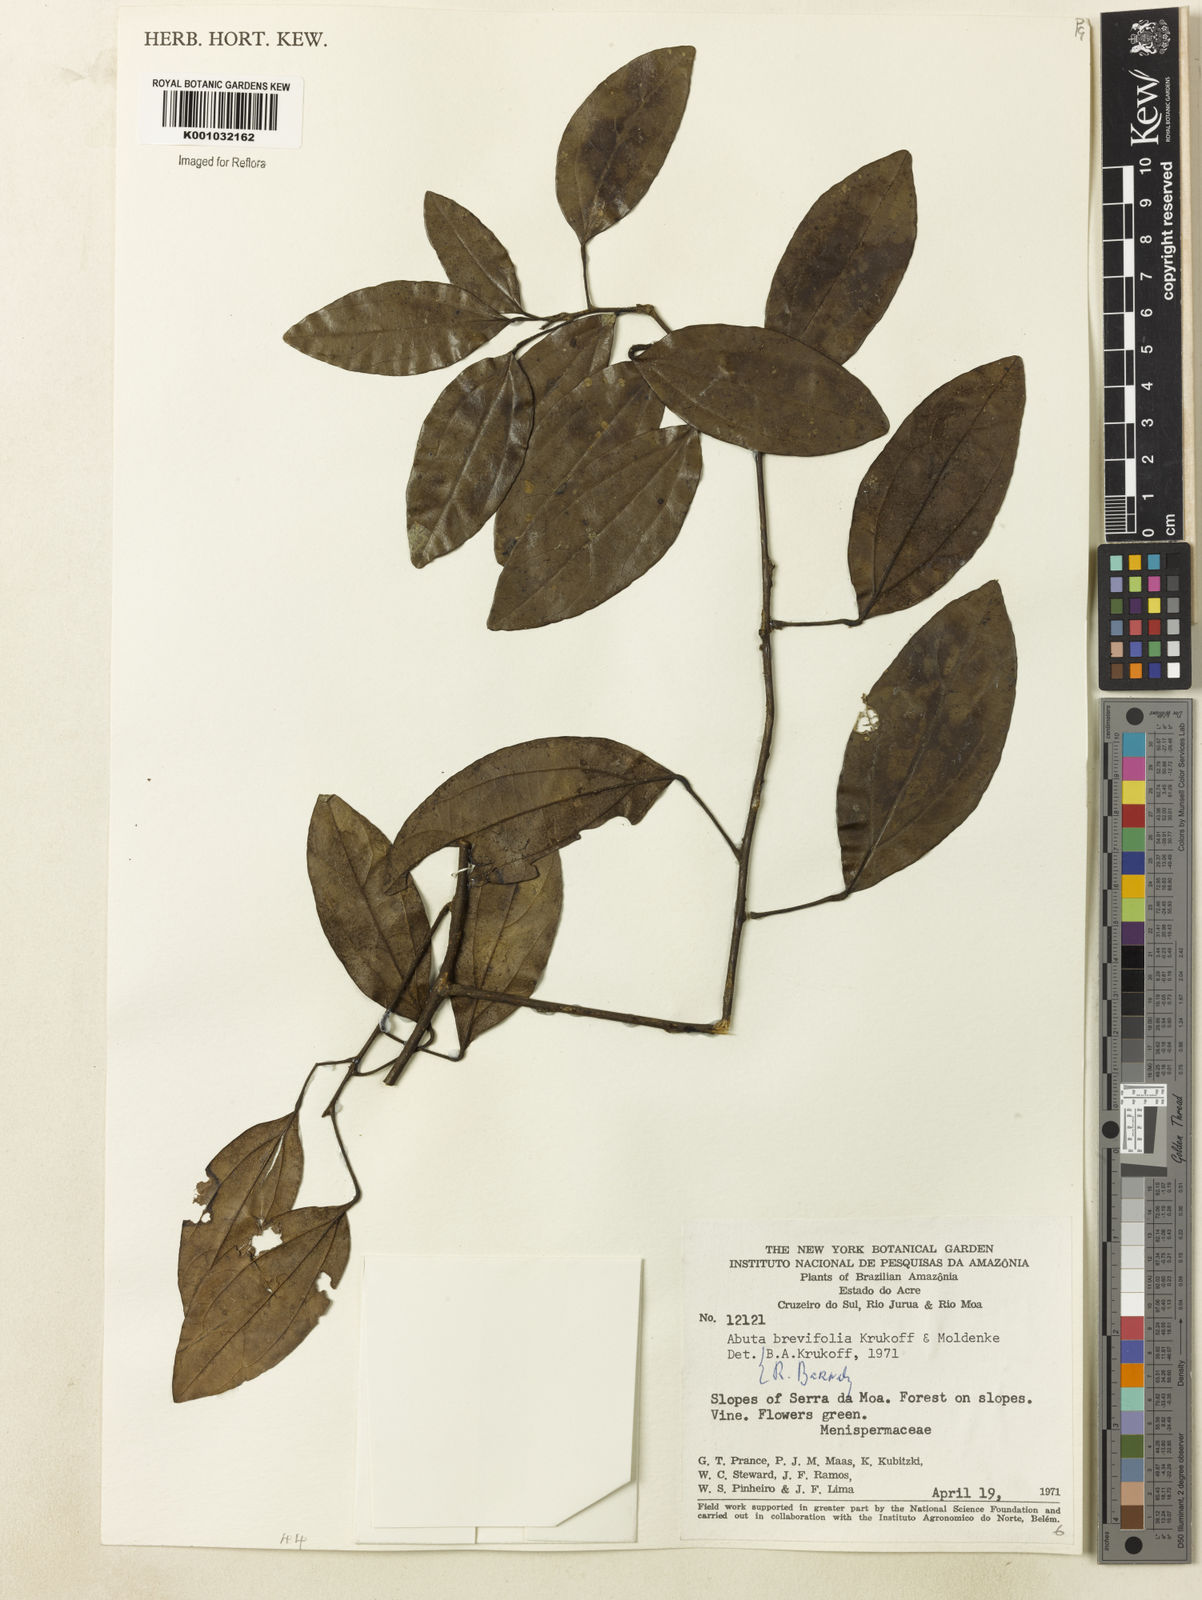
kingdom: Plantae
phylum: Tracheophyta
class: Magnoliopsida
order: Ranunculales
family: Menispermaceae
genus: Abuta
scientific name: Abuta brevifolia
